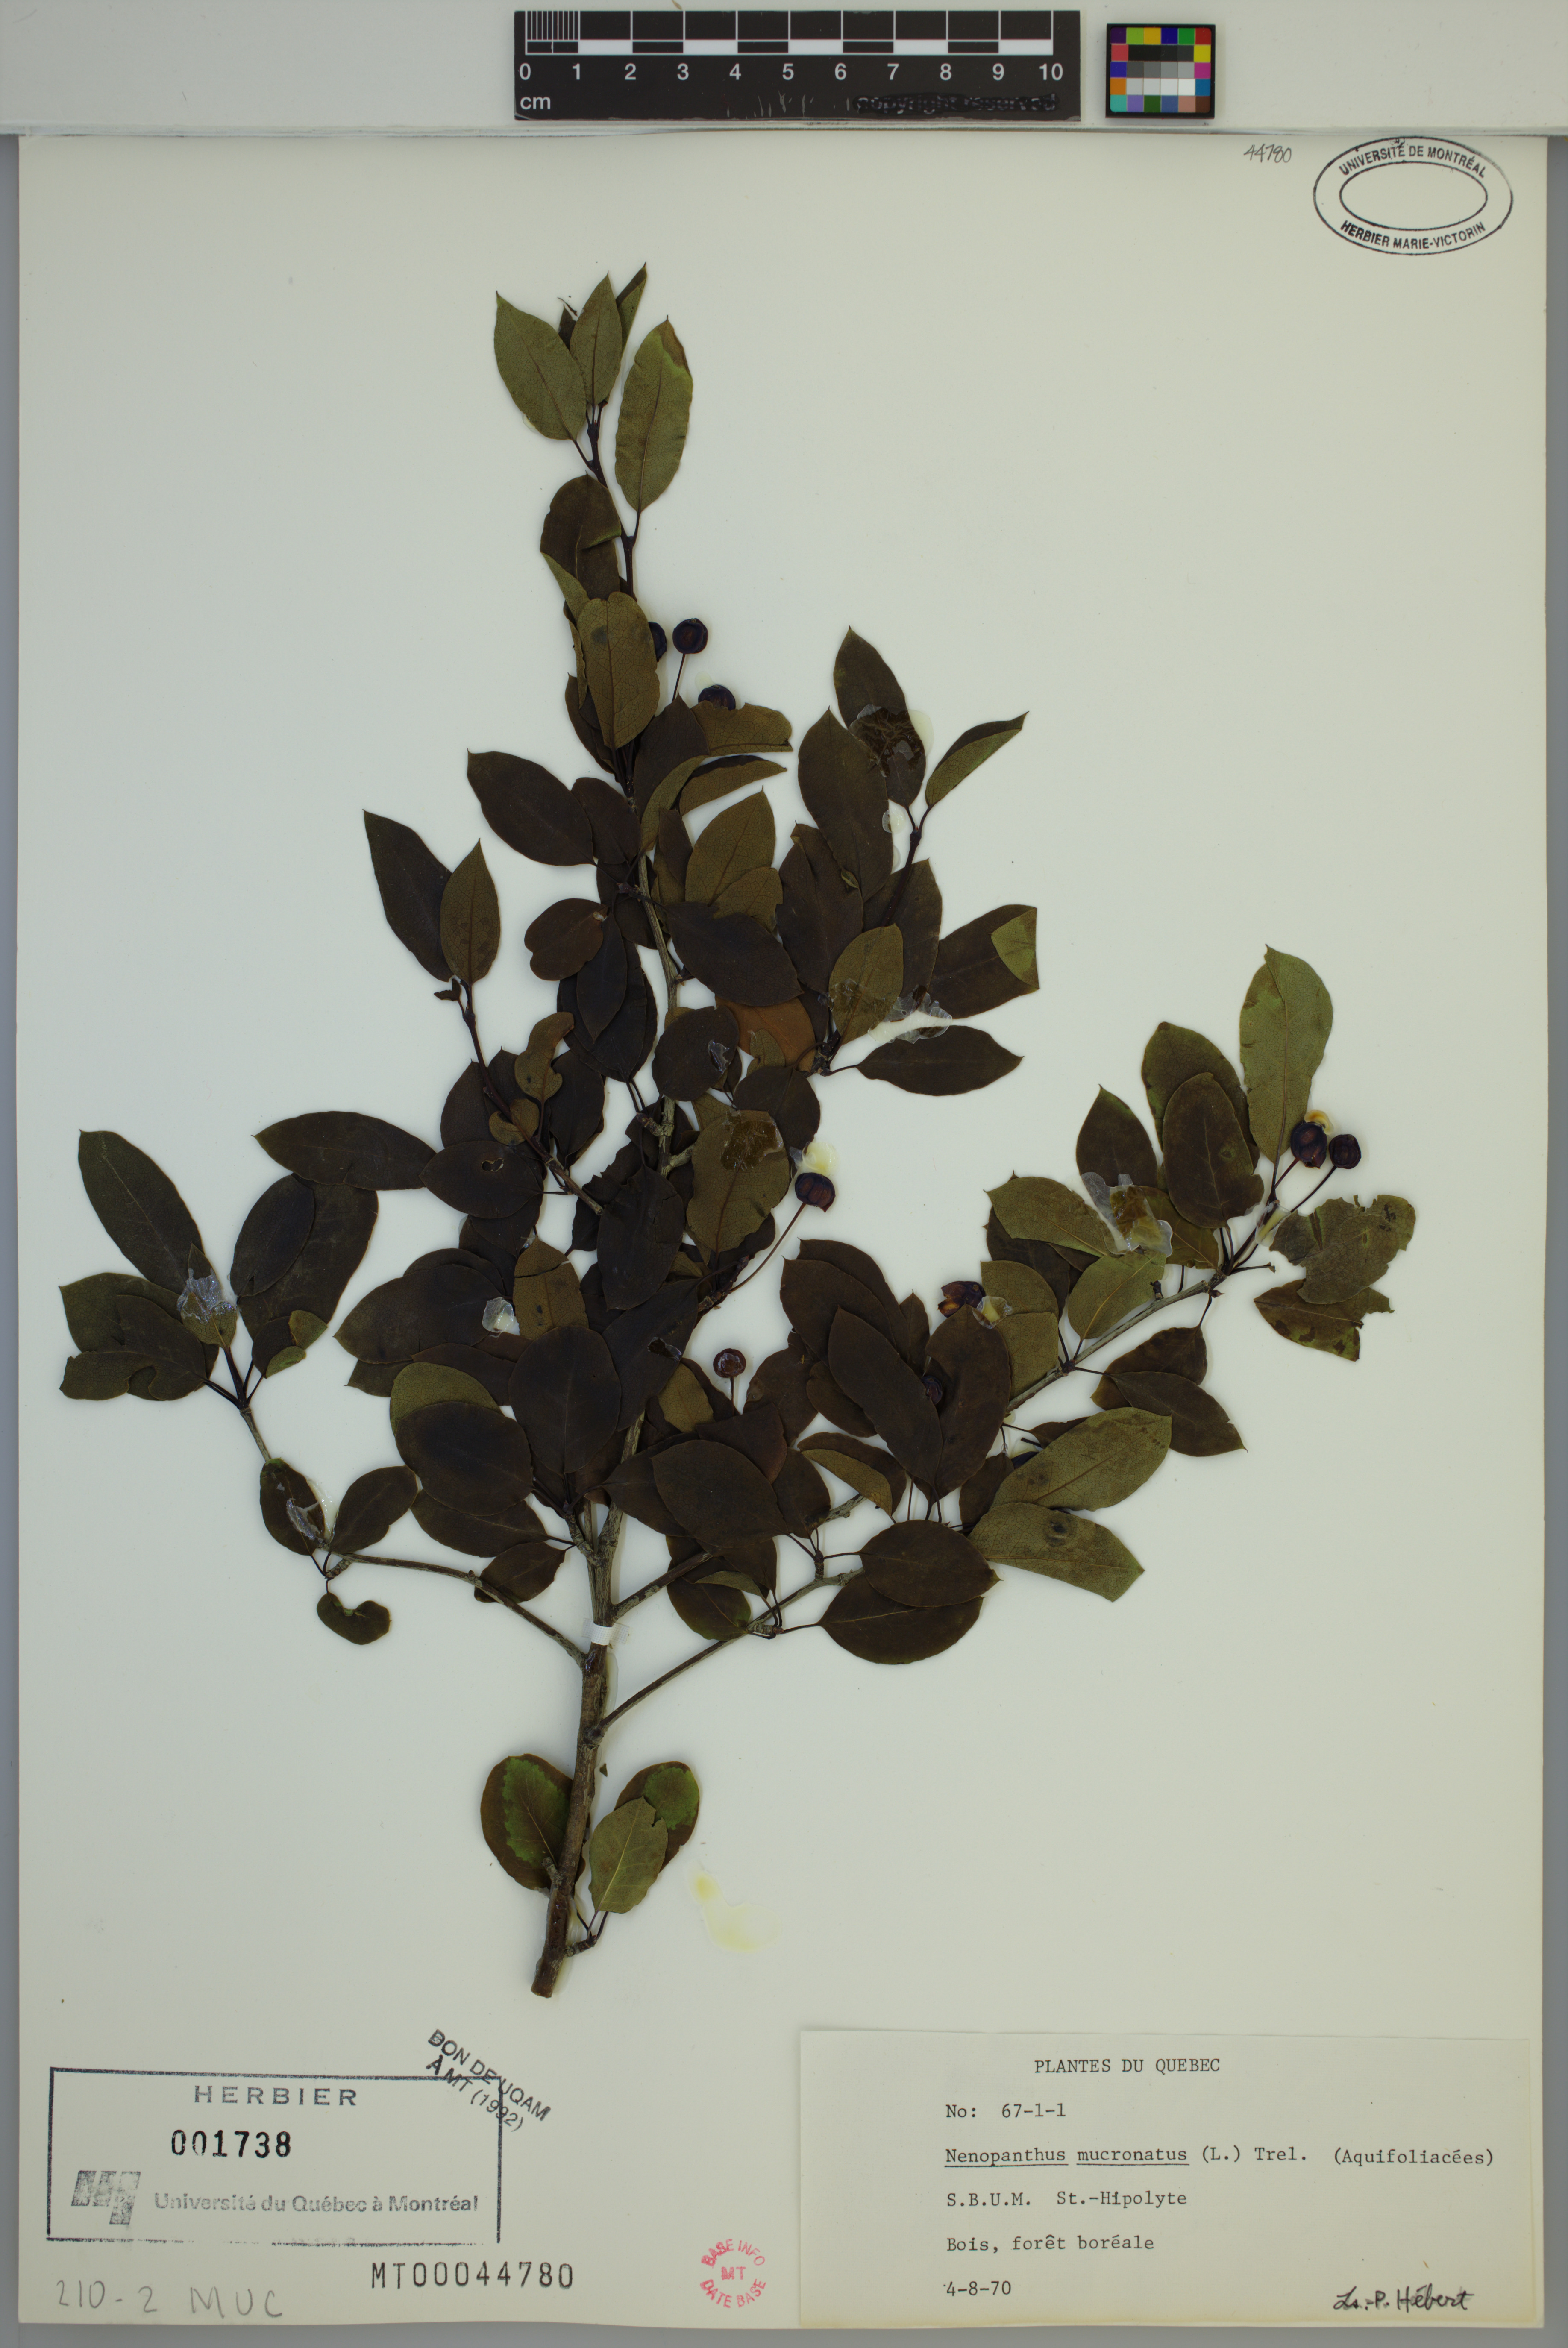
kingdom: Plantae
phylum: Tracheophyta
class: Magnoliopsida
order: Aquifoliales
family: Aquifoliaceae
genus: Ilex
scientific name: Ilex mucronata
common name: Catberry
